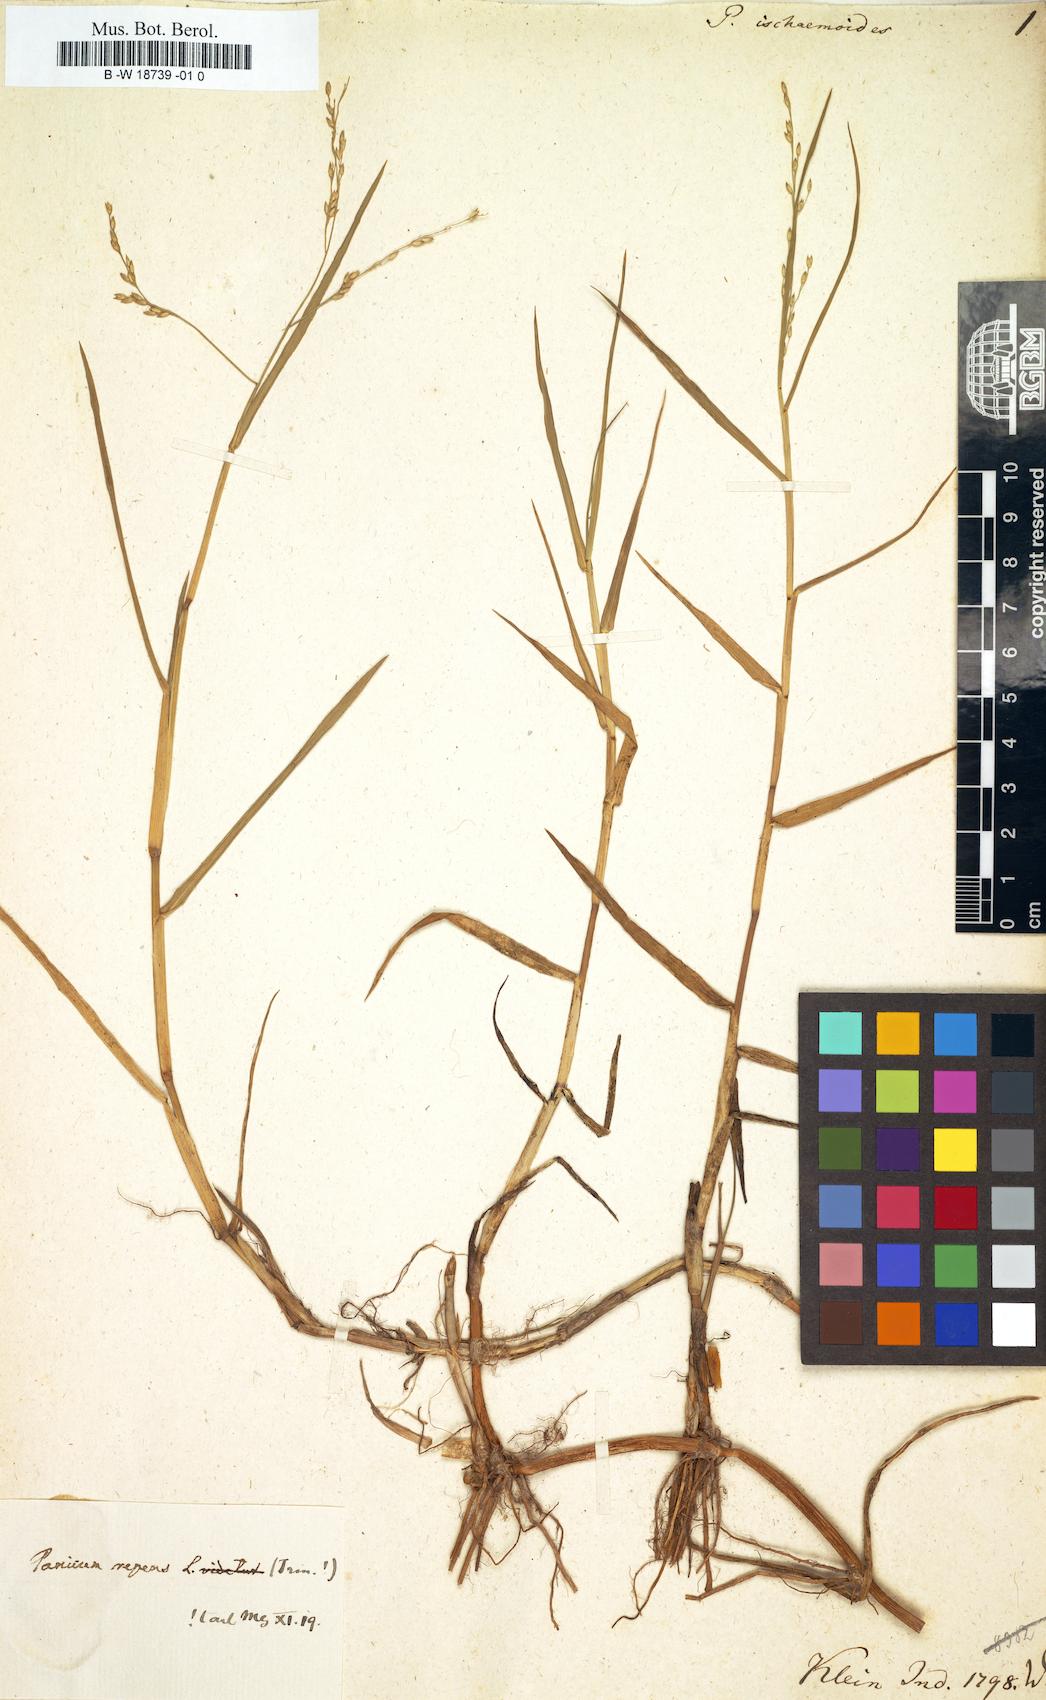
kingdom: Plantae
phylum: Tracheophyta
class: Liliopsida
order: Poales
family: Poaceae
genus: Panicum
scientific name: Panicum repens
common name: Torpedo grass
